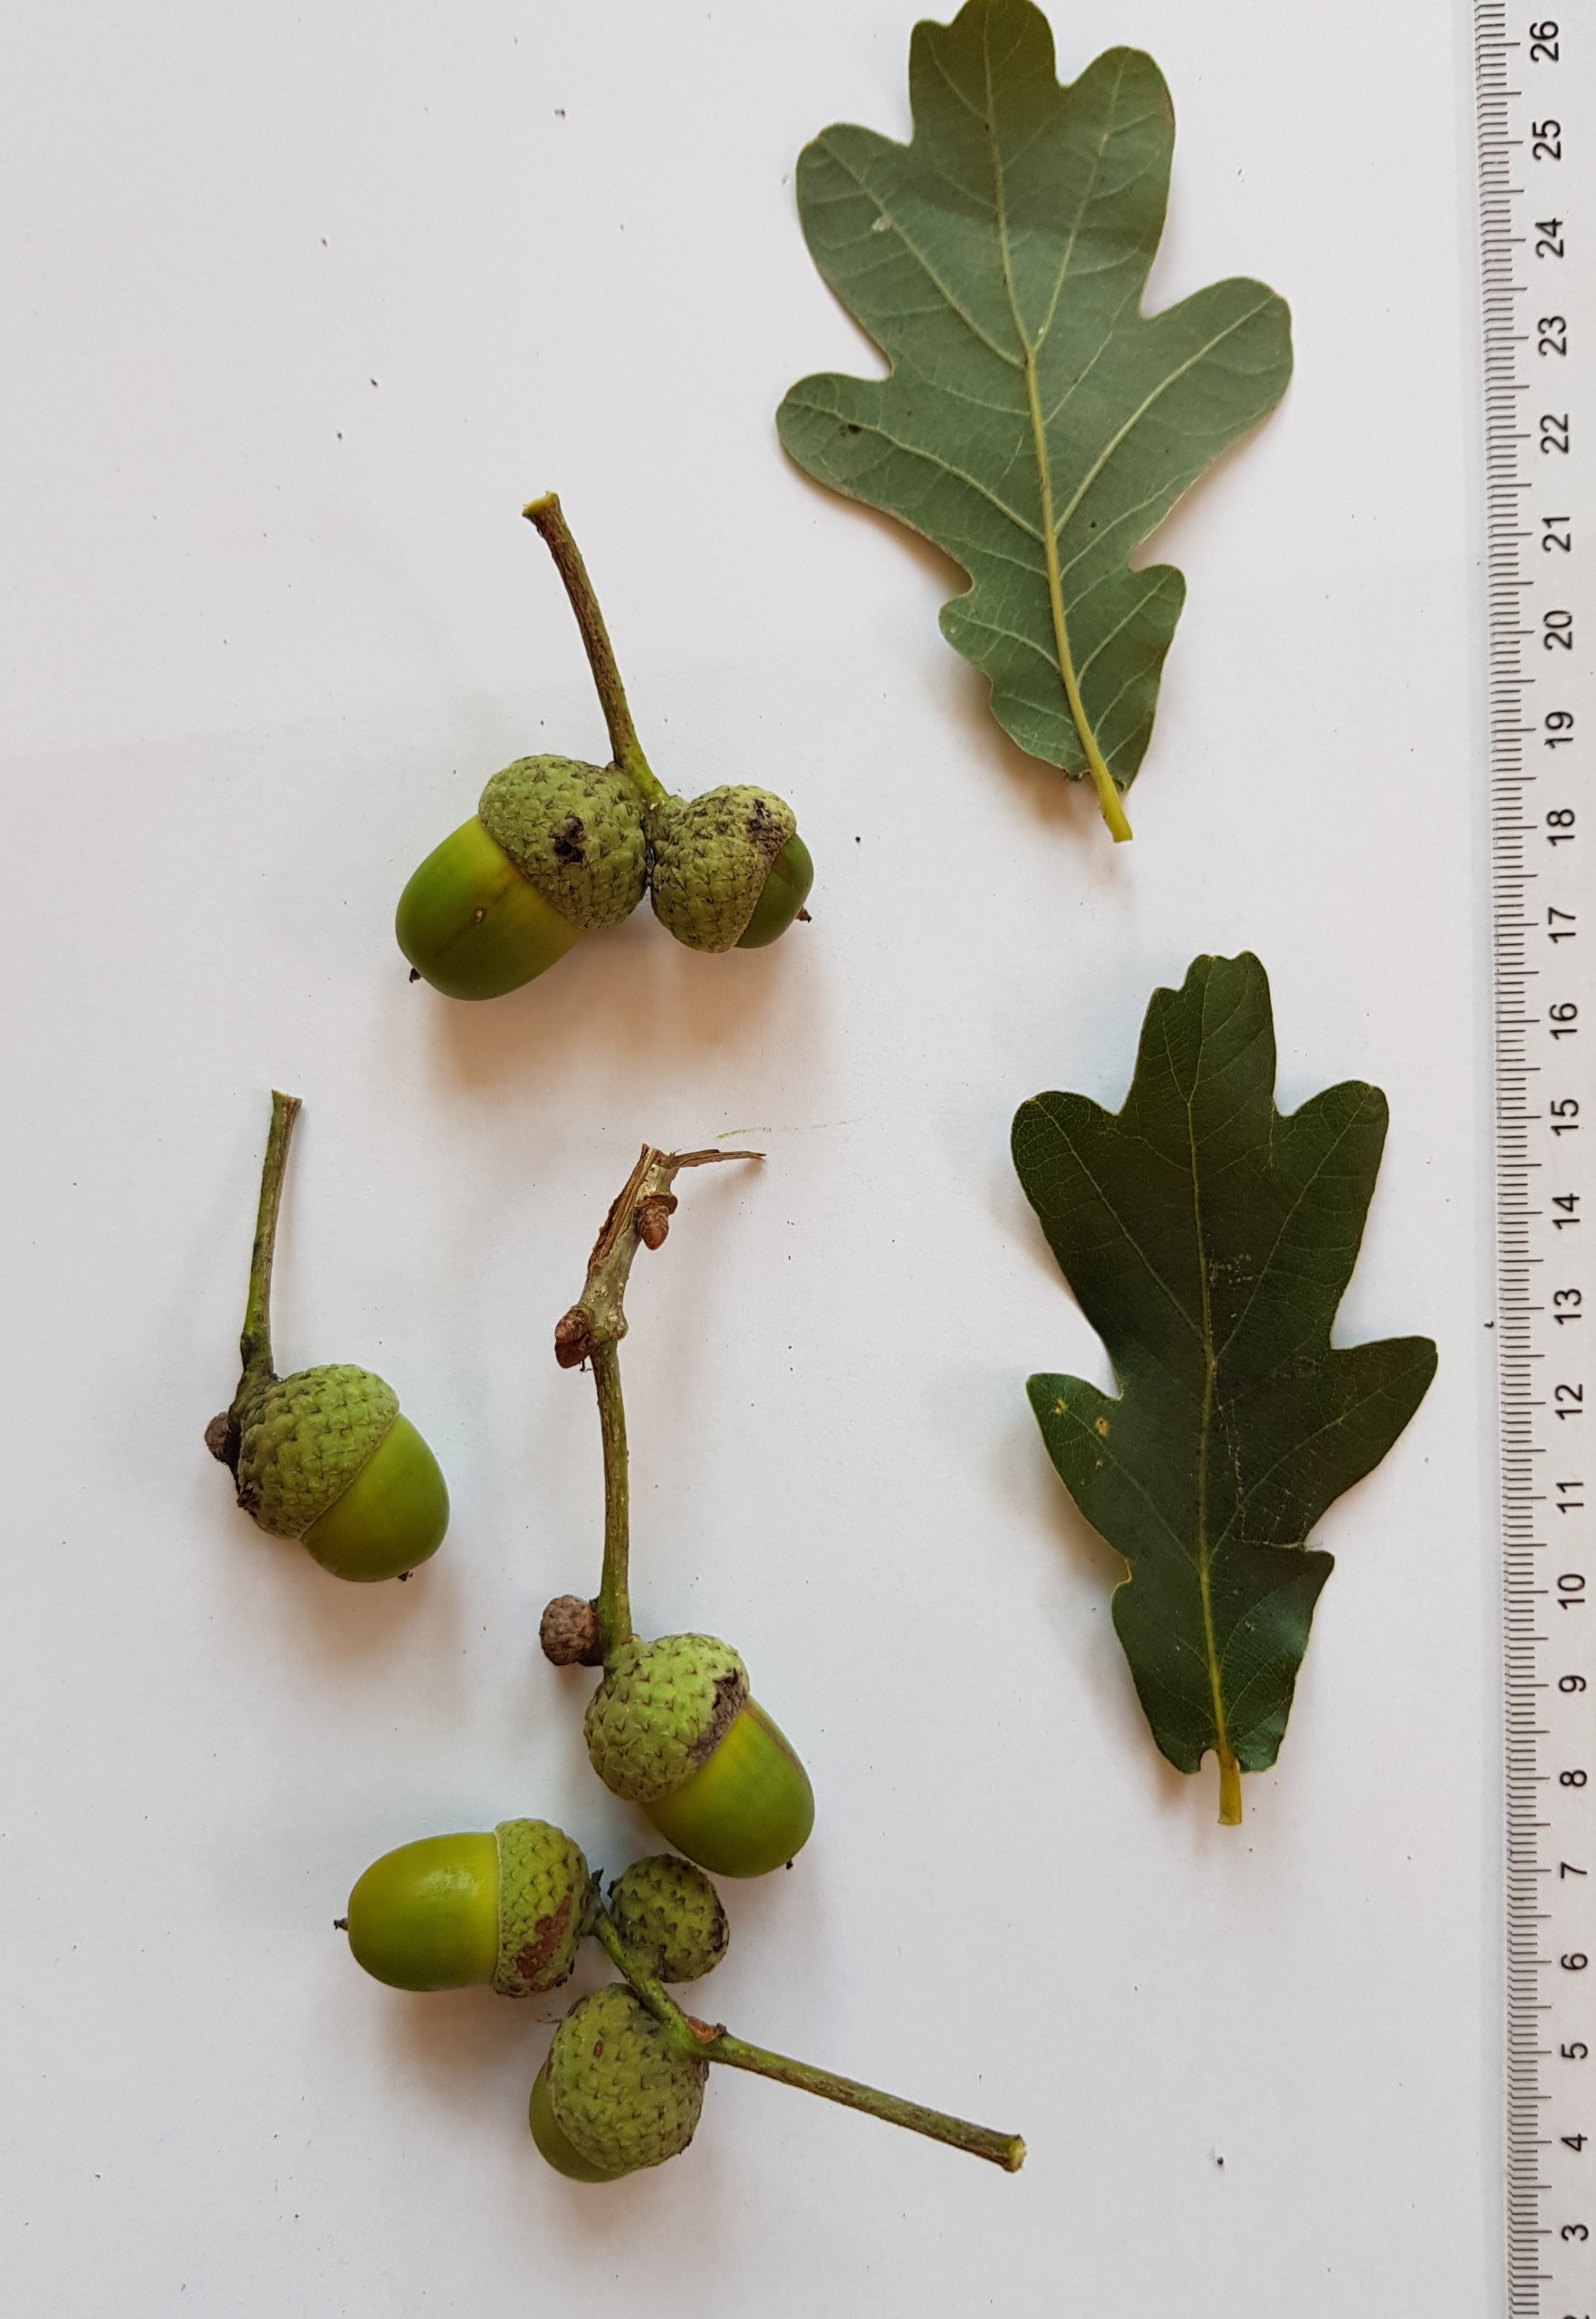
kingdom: Plantae
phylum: Tracheophyta
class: Magnoliopsida
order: Fagales
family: Fagaceae
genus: Quercus
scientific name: Quercus robur
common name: Stilk-eg/almindelig eg
